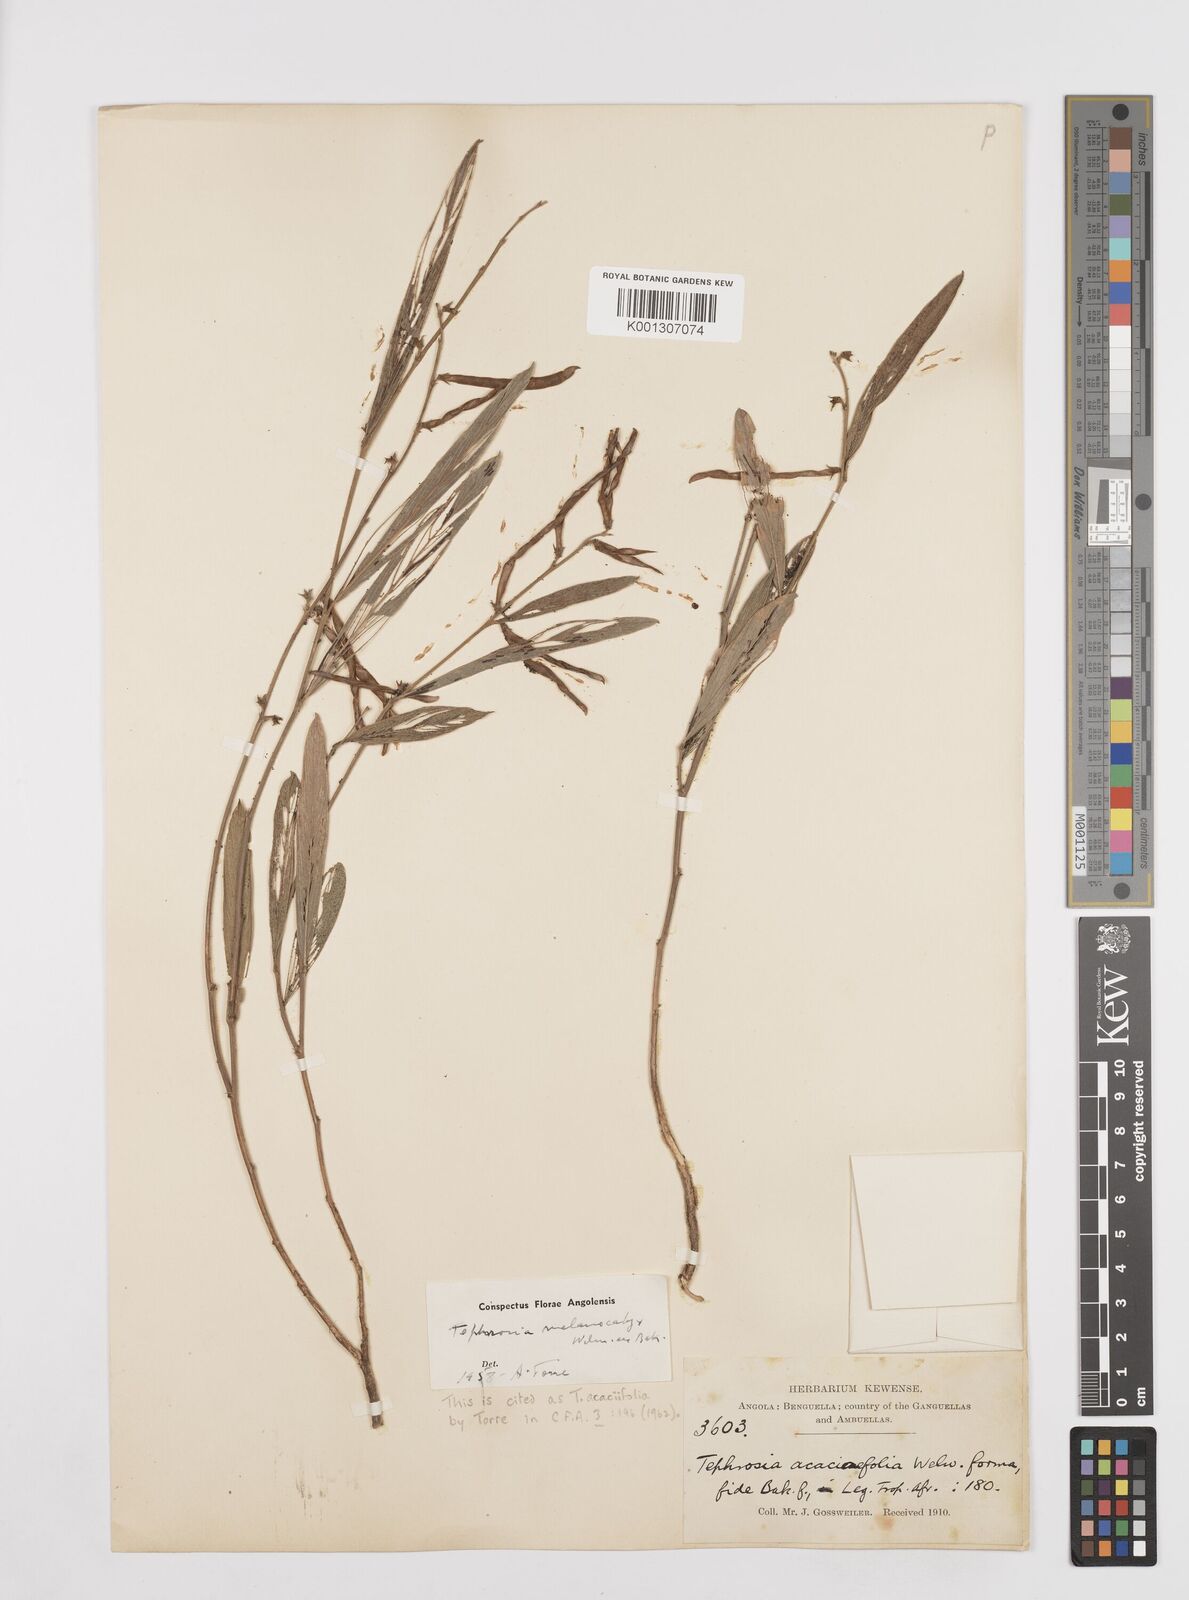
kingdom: Plantae
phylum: Tracheophyta
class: Magnoliopsida
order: Fabales
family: Fabaceae
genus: Tephrosia
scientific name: Tephrosia acaciifolia
